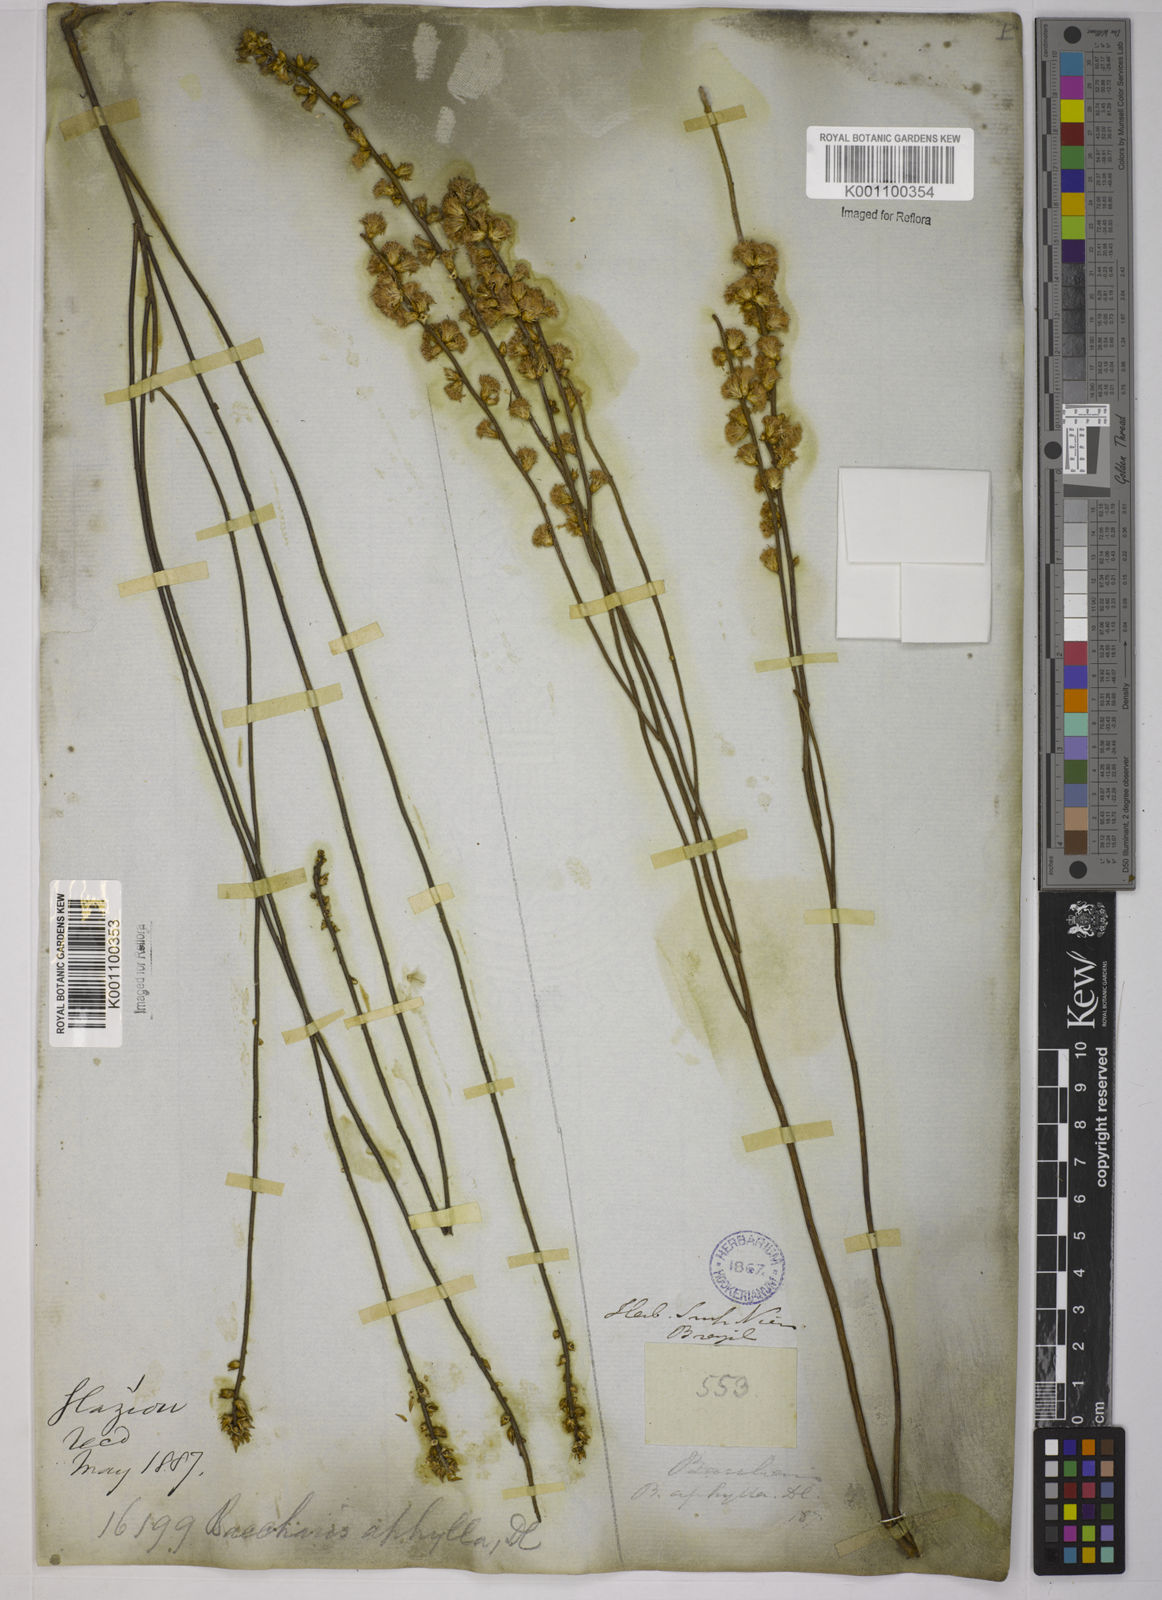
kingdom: Plantae
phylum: Tracheophyta
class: Magnoliopsida
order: Asterales
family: Asteraceae
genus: Baccharis
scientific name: Baccharis aphylla
